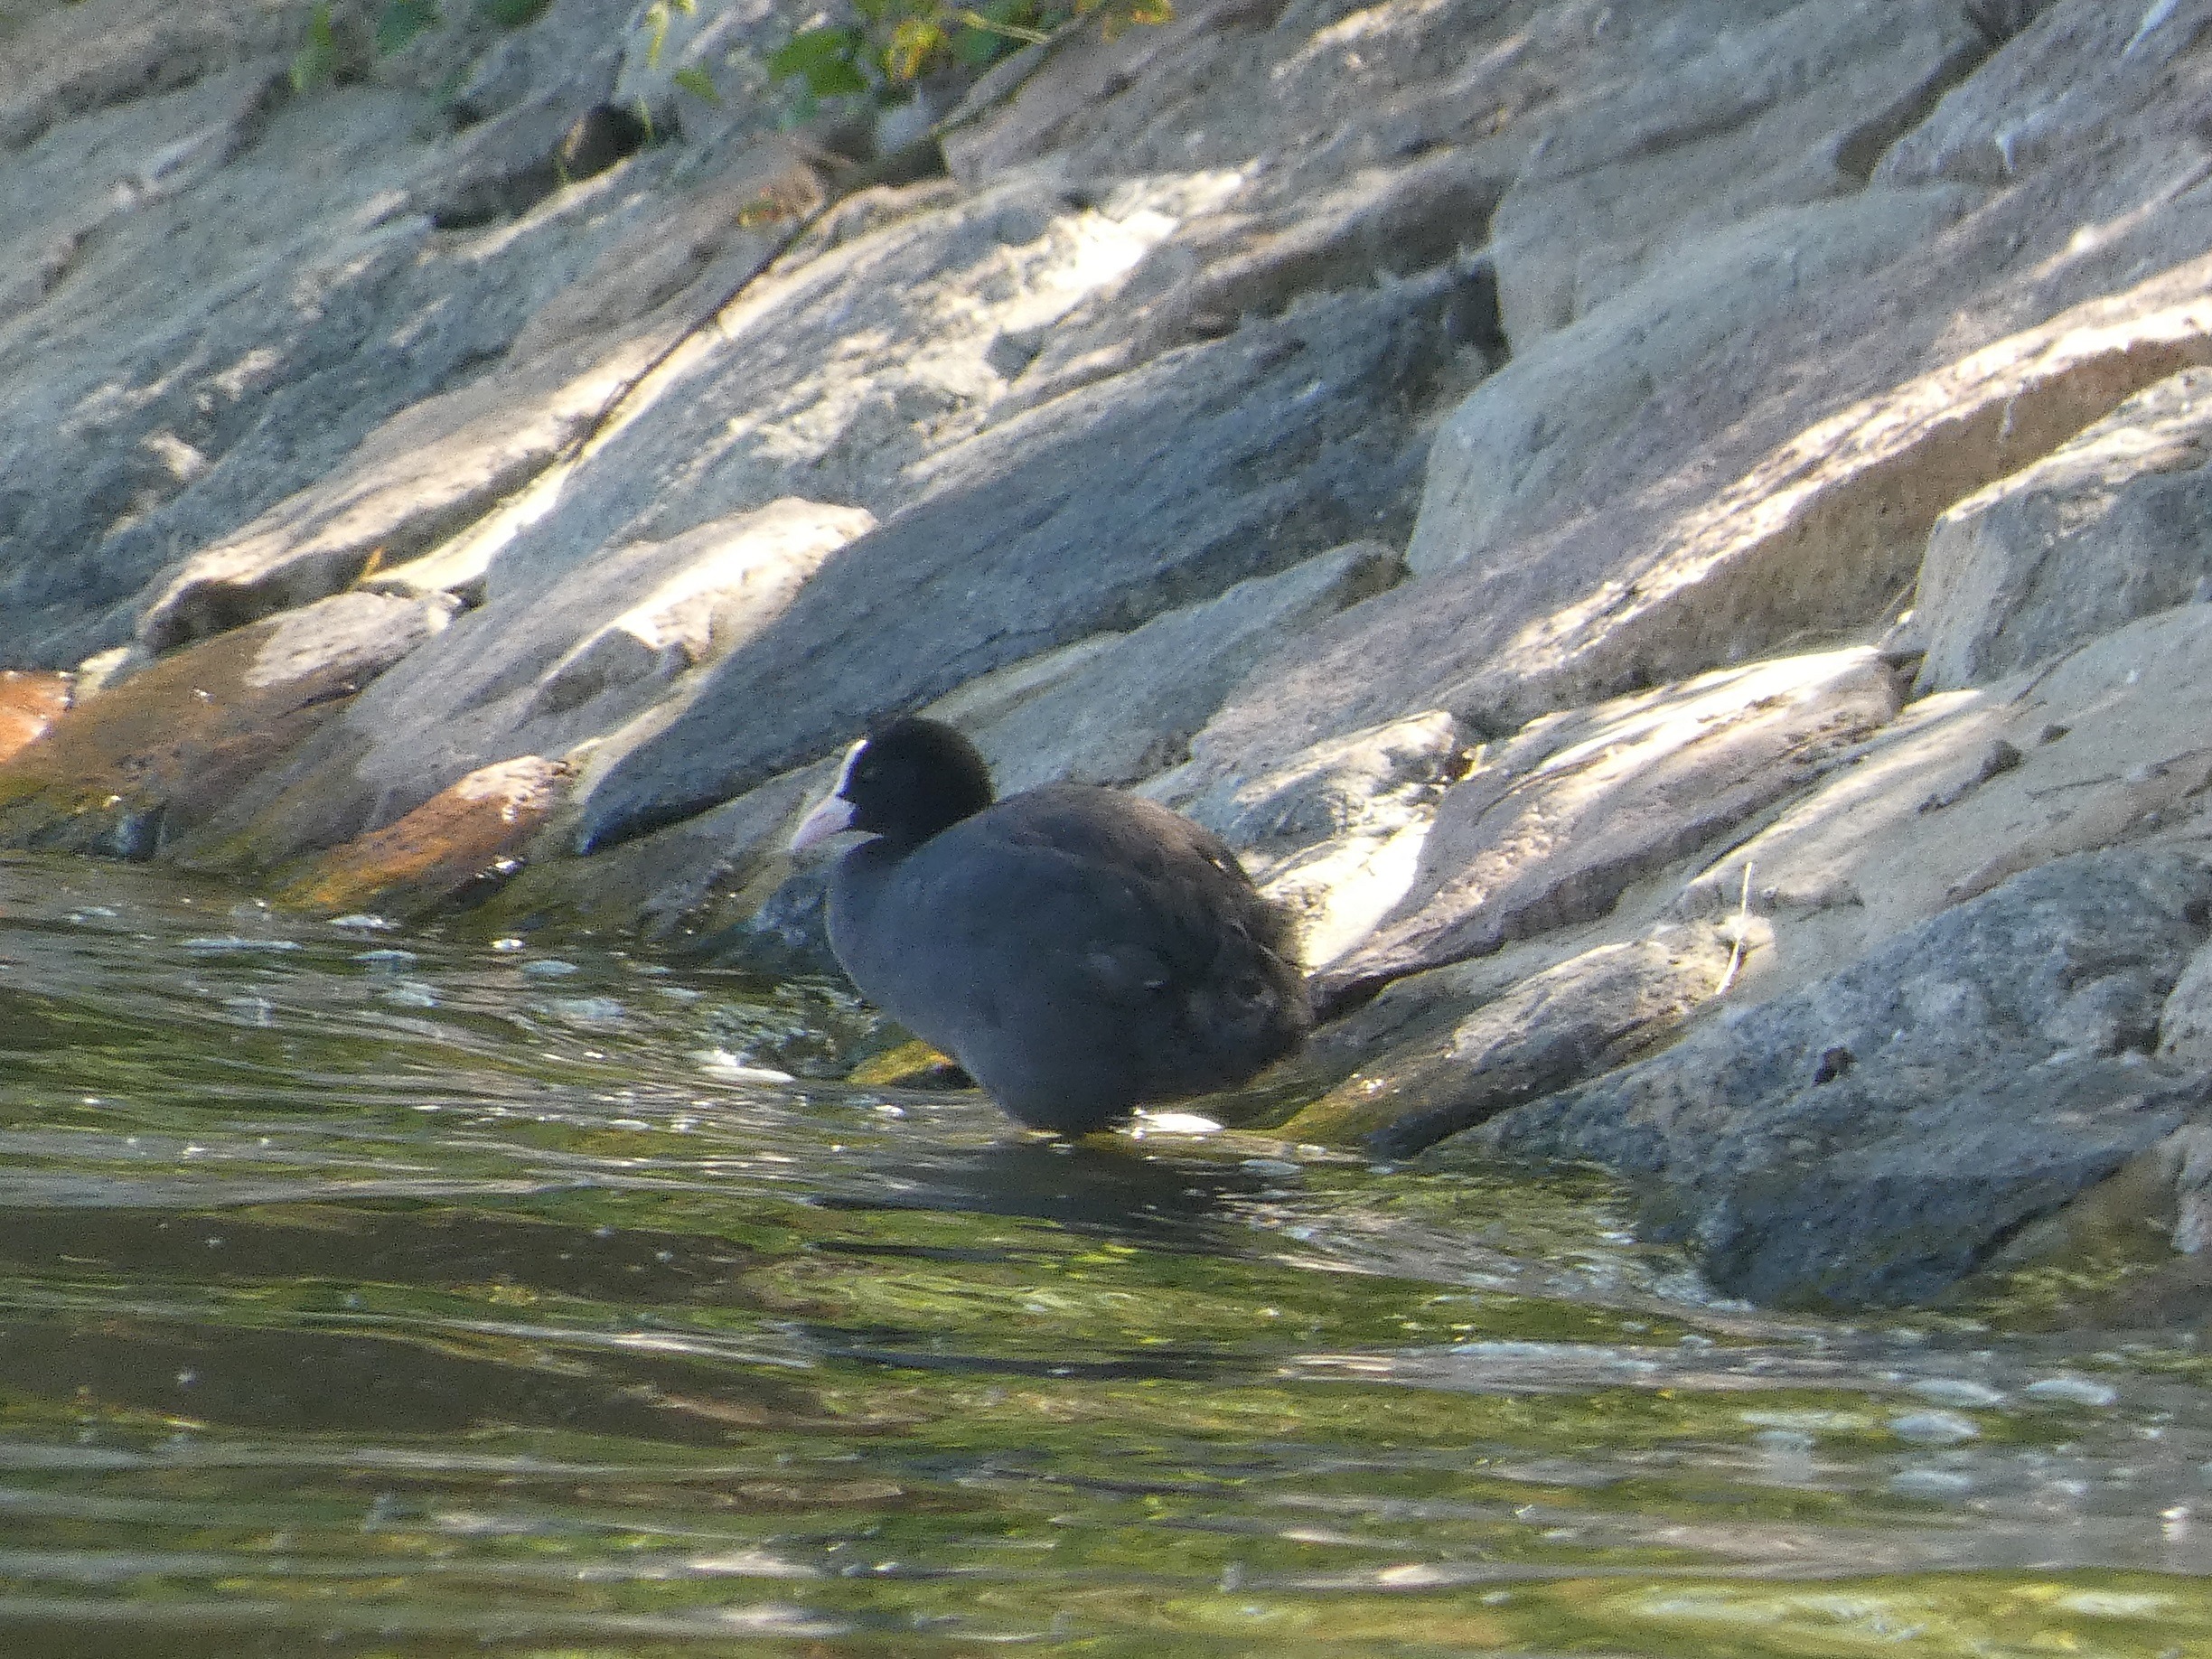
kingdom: Animalia
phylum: Chordata
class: Aves
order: Gruiformes
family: Rallidae
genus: Fulica
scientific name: Fulica atra
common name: Blishøne
